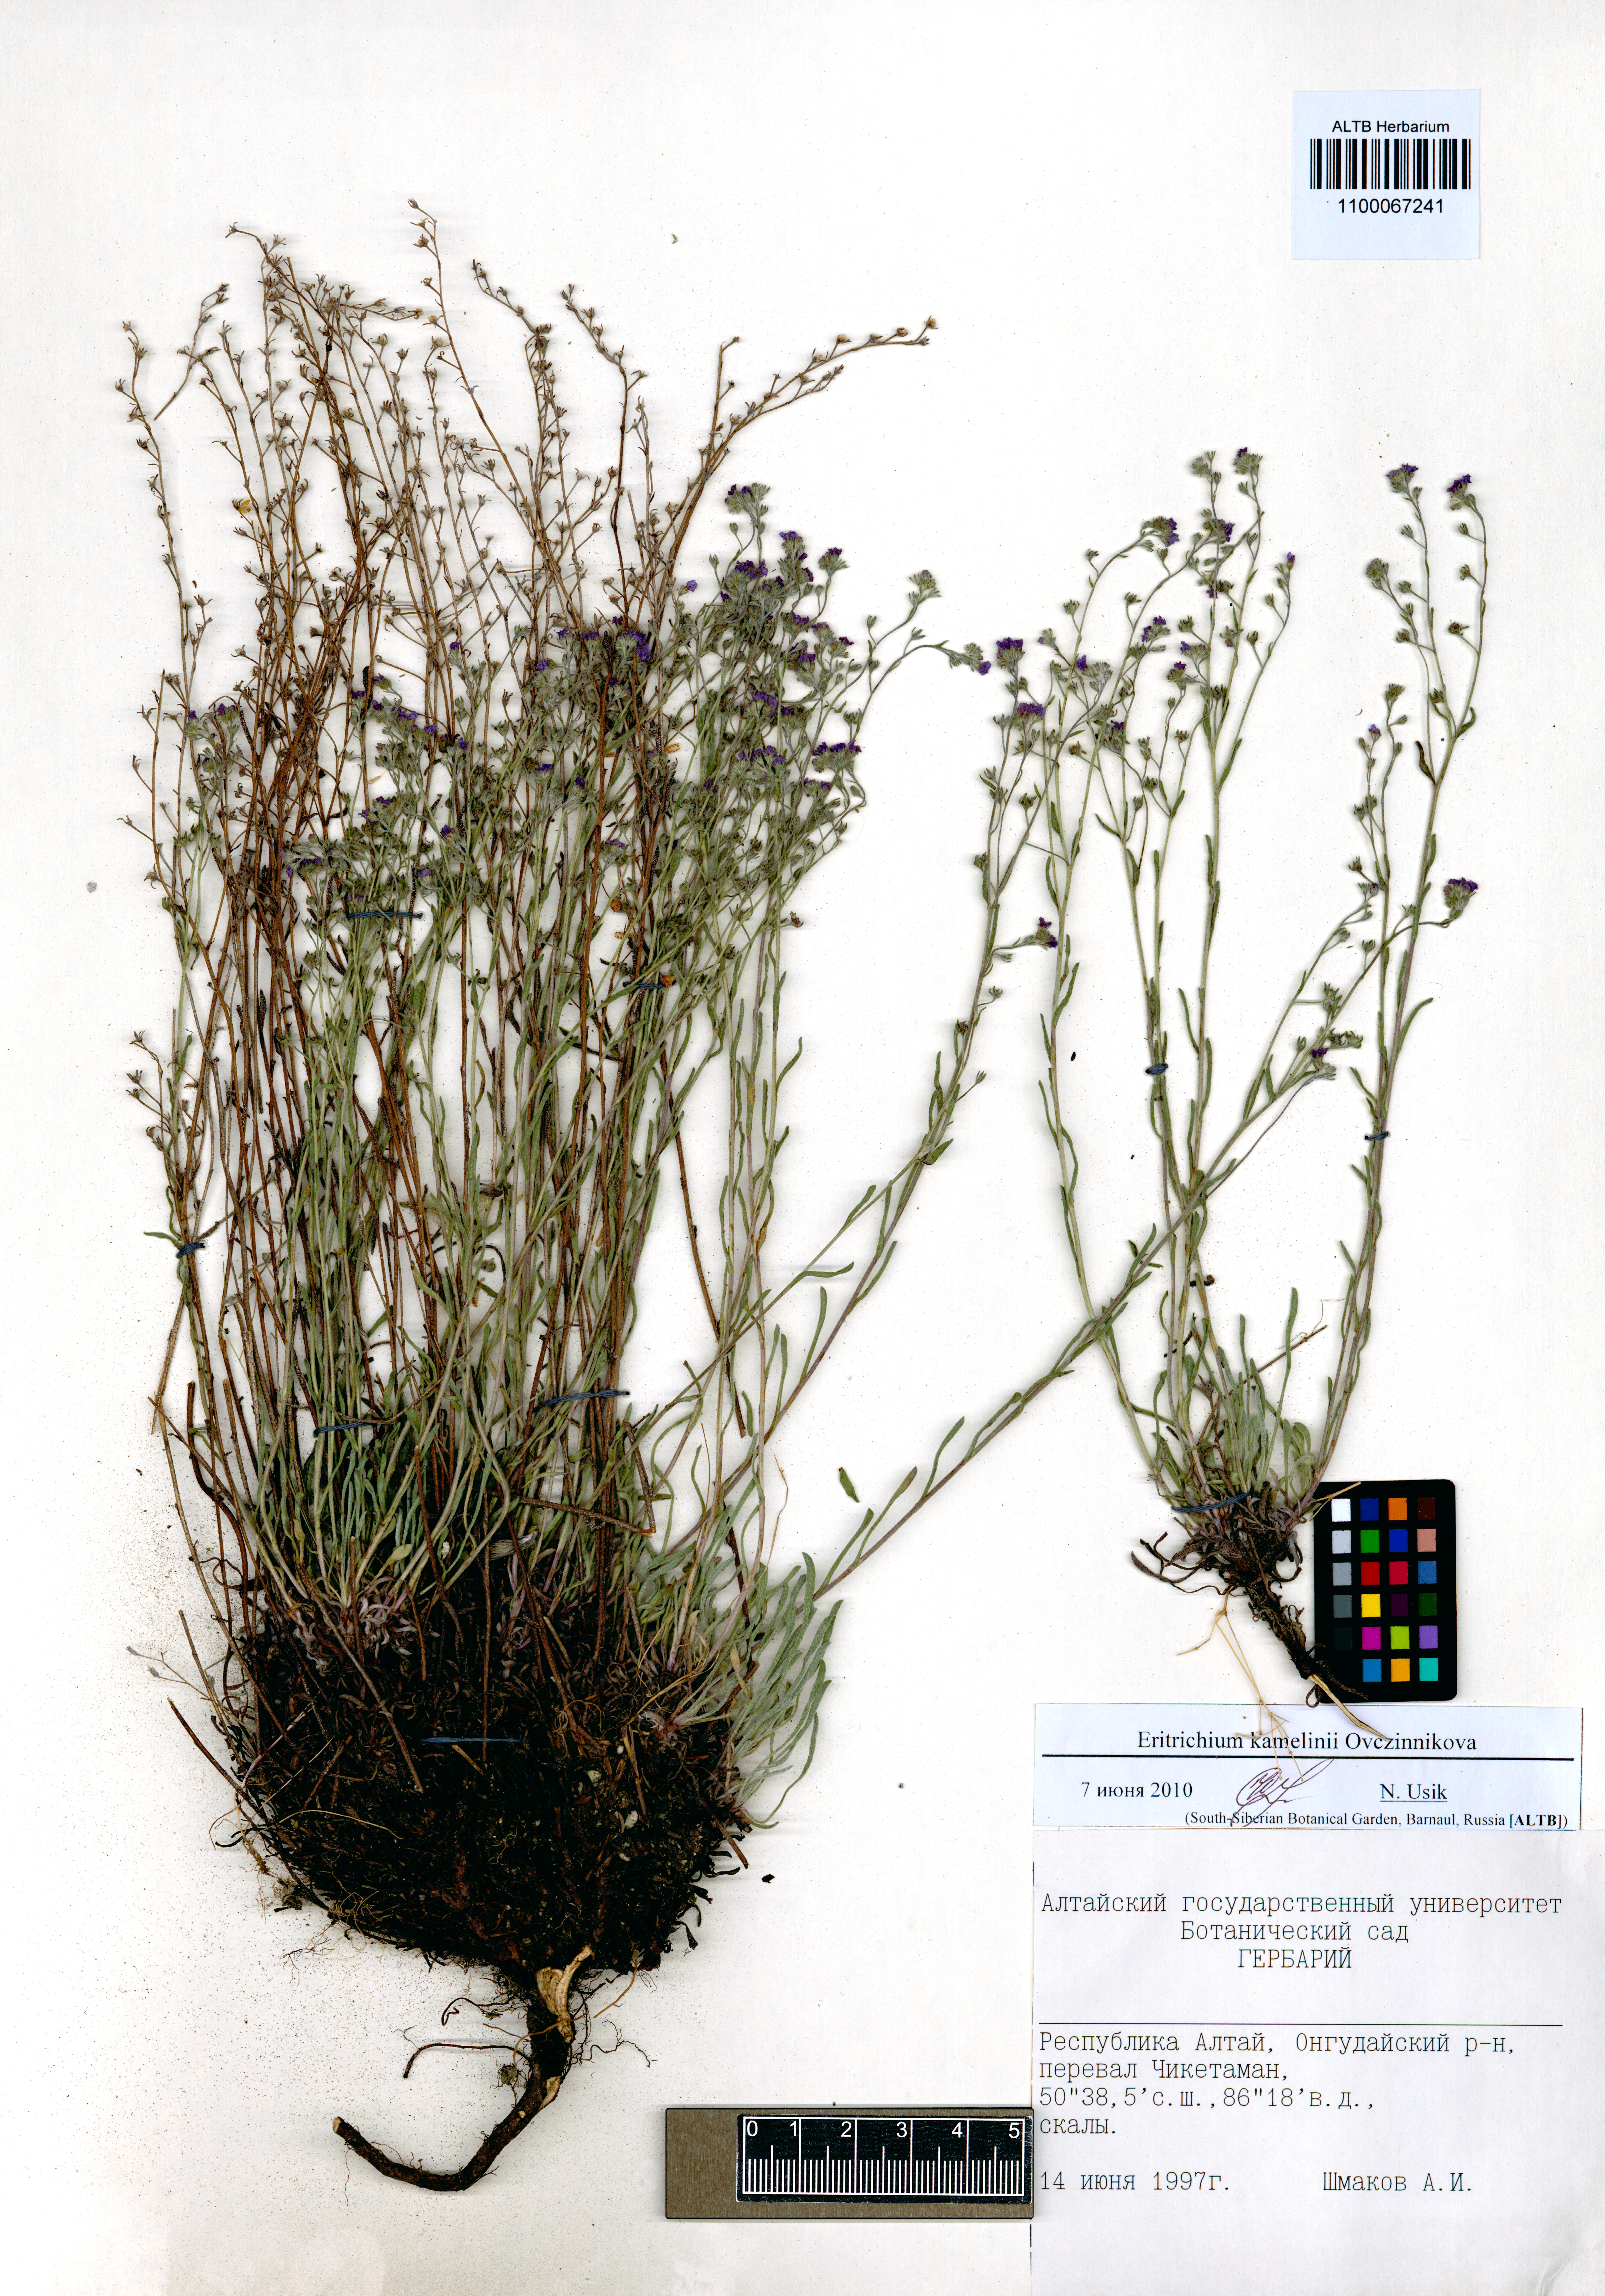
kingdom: Plantae
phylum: Tracheophyta
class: Magnoliopsida
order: Boraginales
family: Boraginaceae
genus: Eritrichium
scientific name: Eritrichium kamelinii
